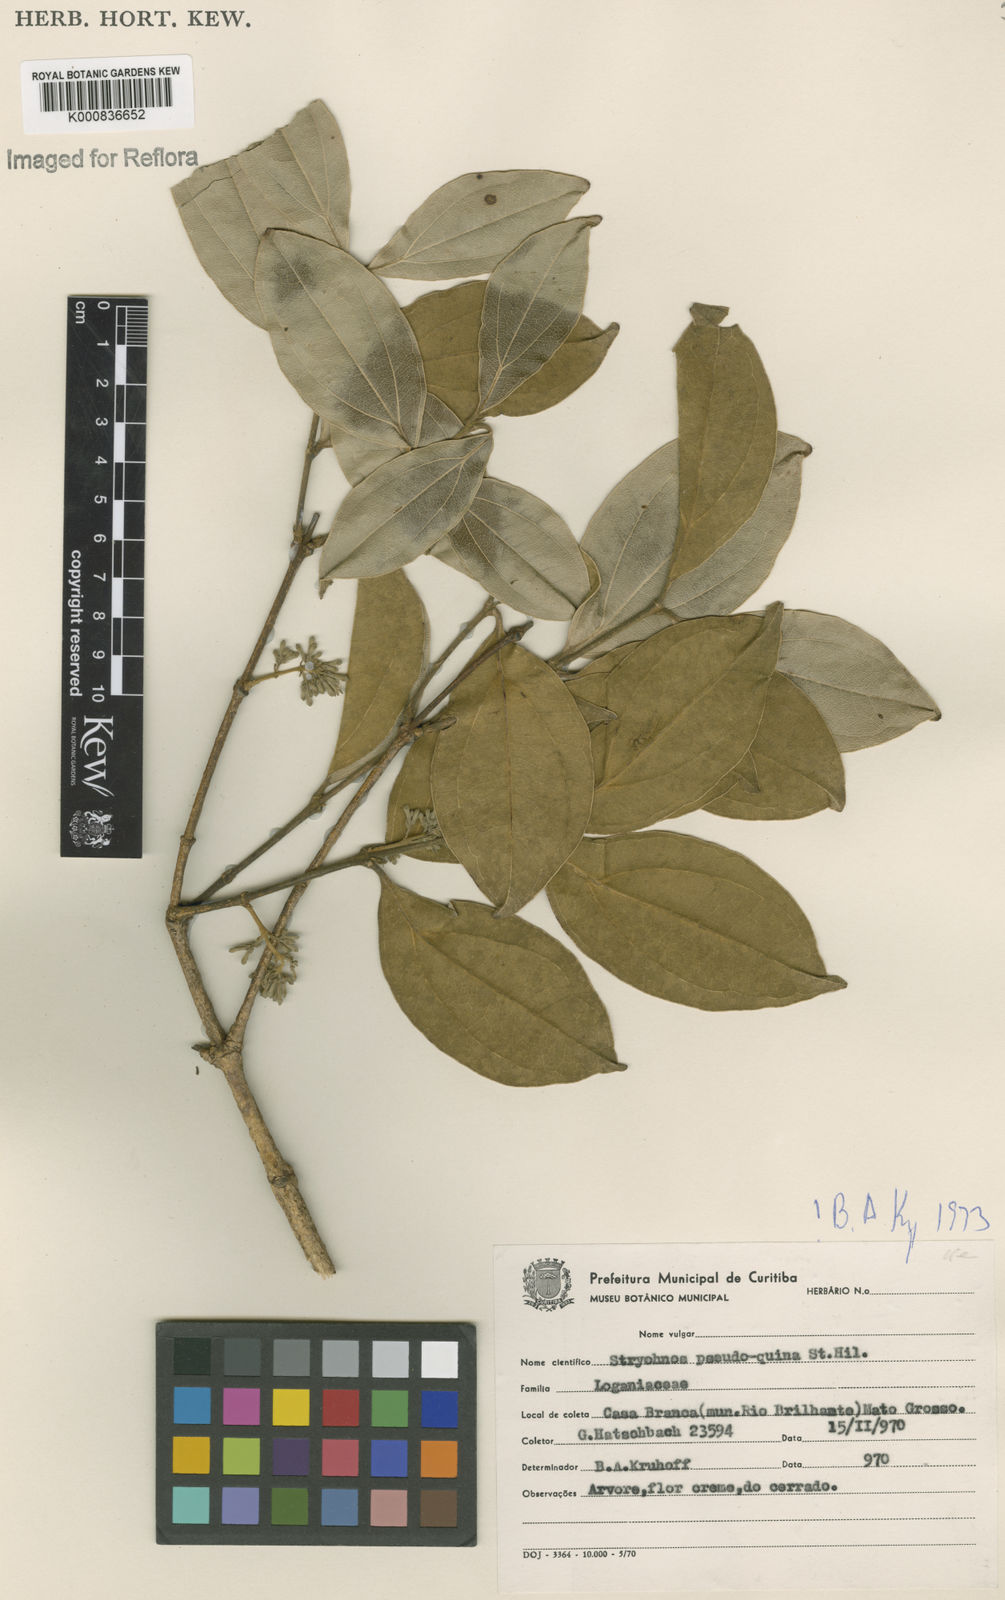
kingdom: Plantae
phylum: Tracheophyta
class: Magnoliopsida
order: Gentianales
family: Loganiaceae
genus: Strychnos
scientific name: Strychnos pseudoquina
